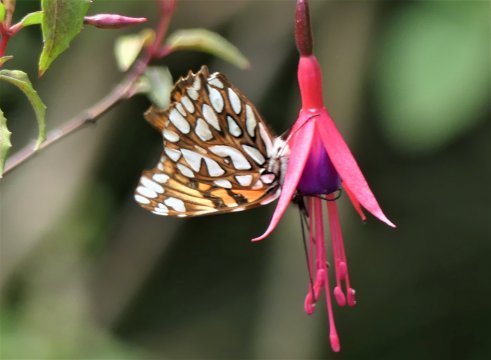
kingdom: Animalia
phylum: Arthropoda
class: Insecta
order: Lepidoptera
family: Nymphalidae
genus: Dione
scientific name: Dione glycera
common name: Andean Silverspot
